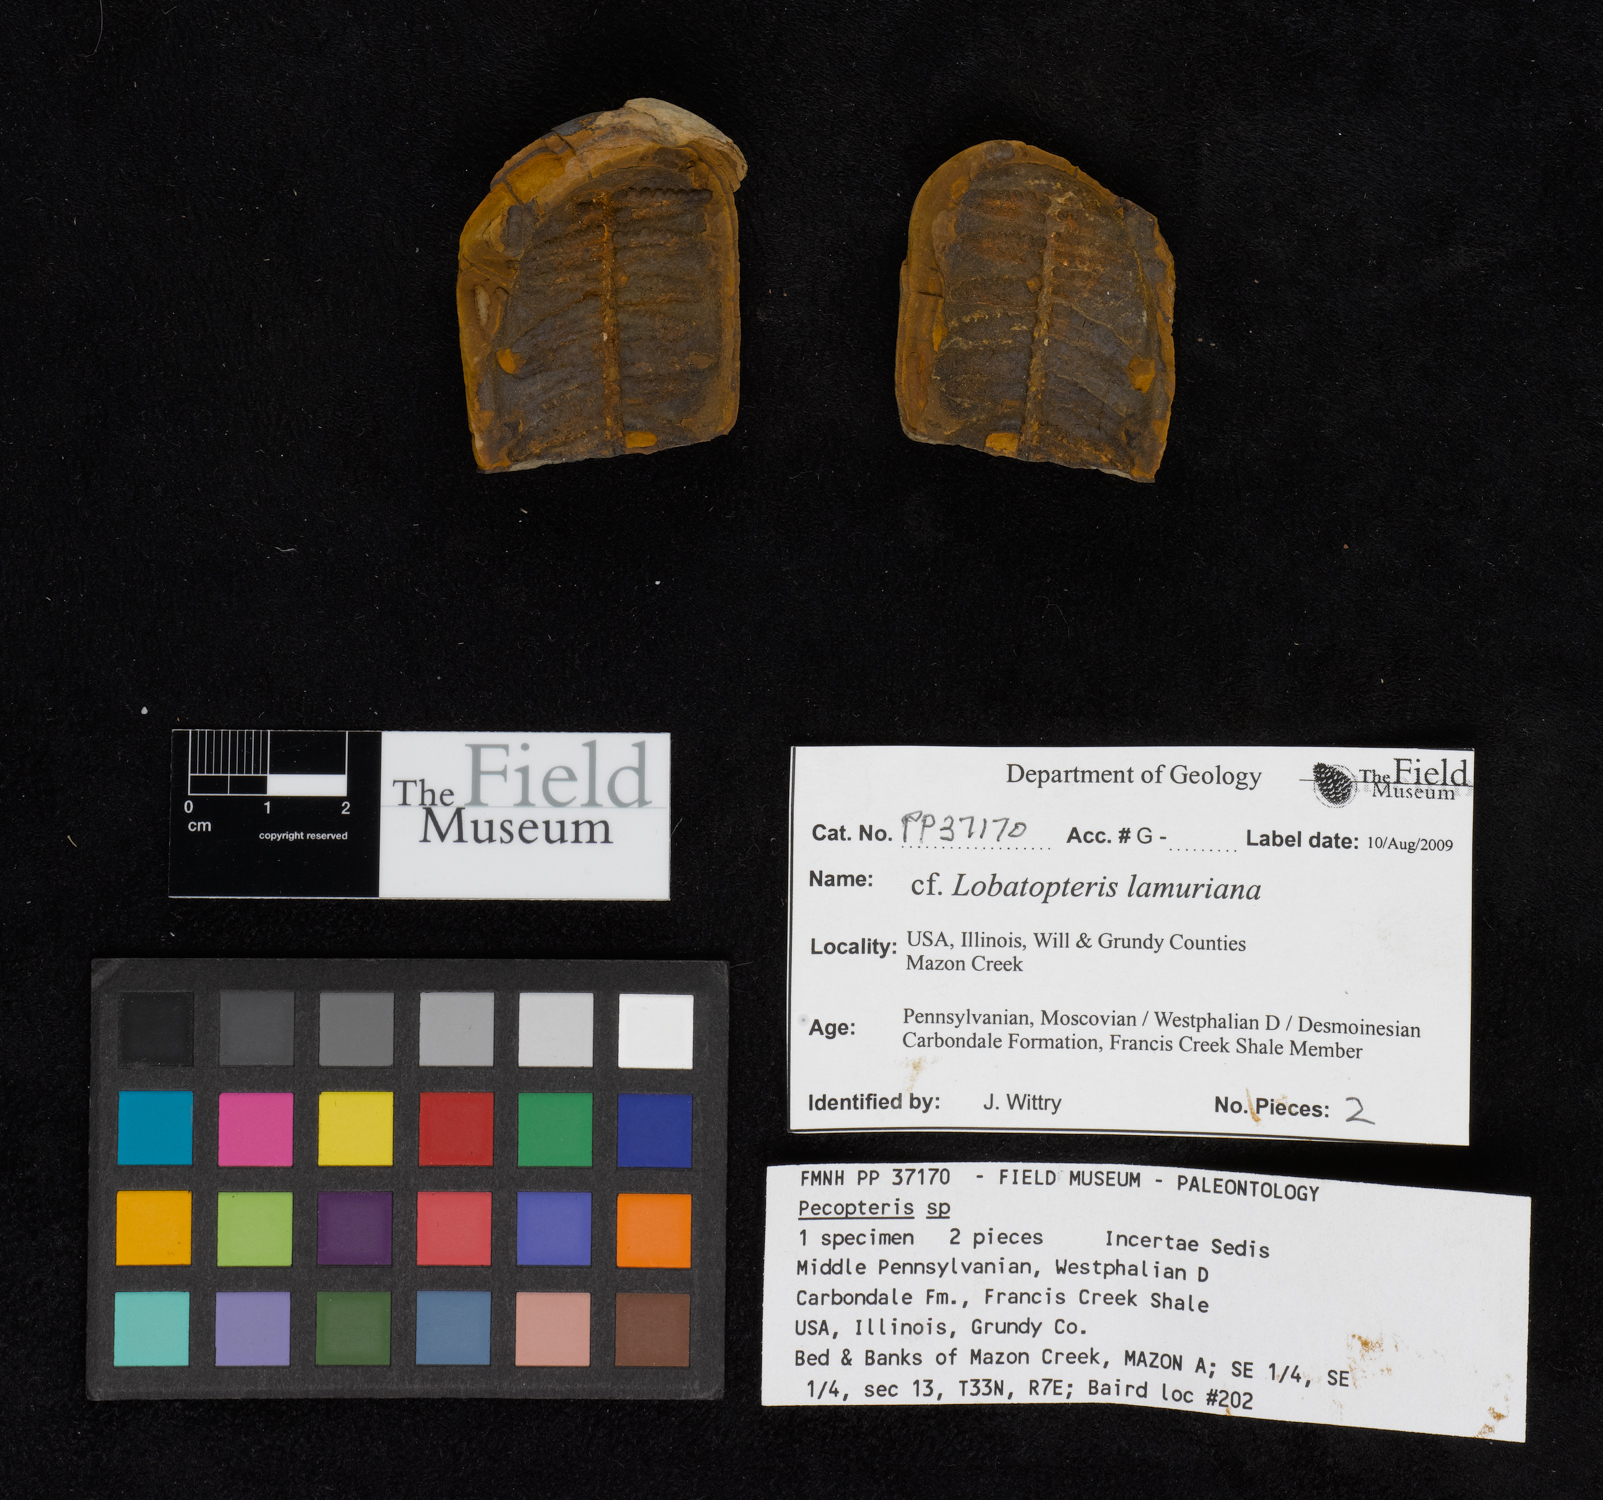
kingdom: Plantae
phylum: Tracheophyta
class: Polypodiopsida
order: Marattiales
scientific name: Marattiales
